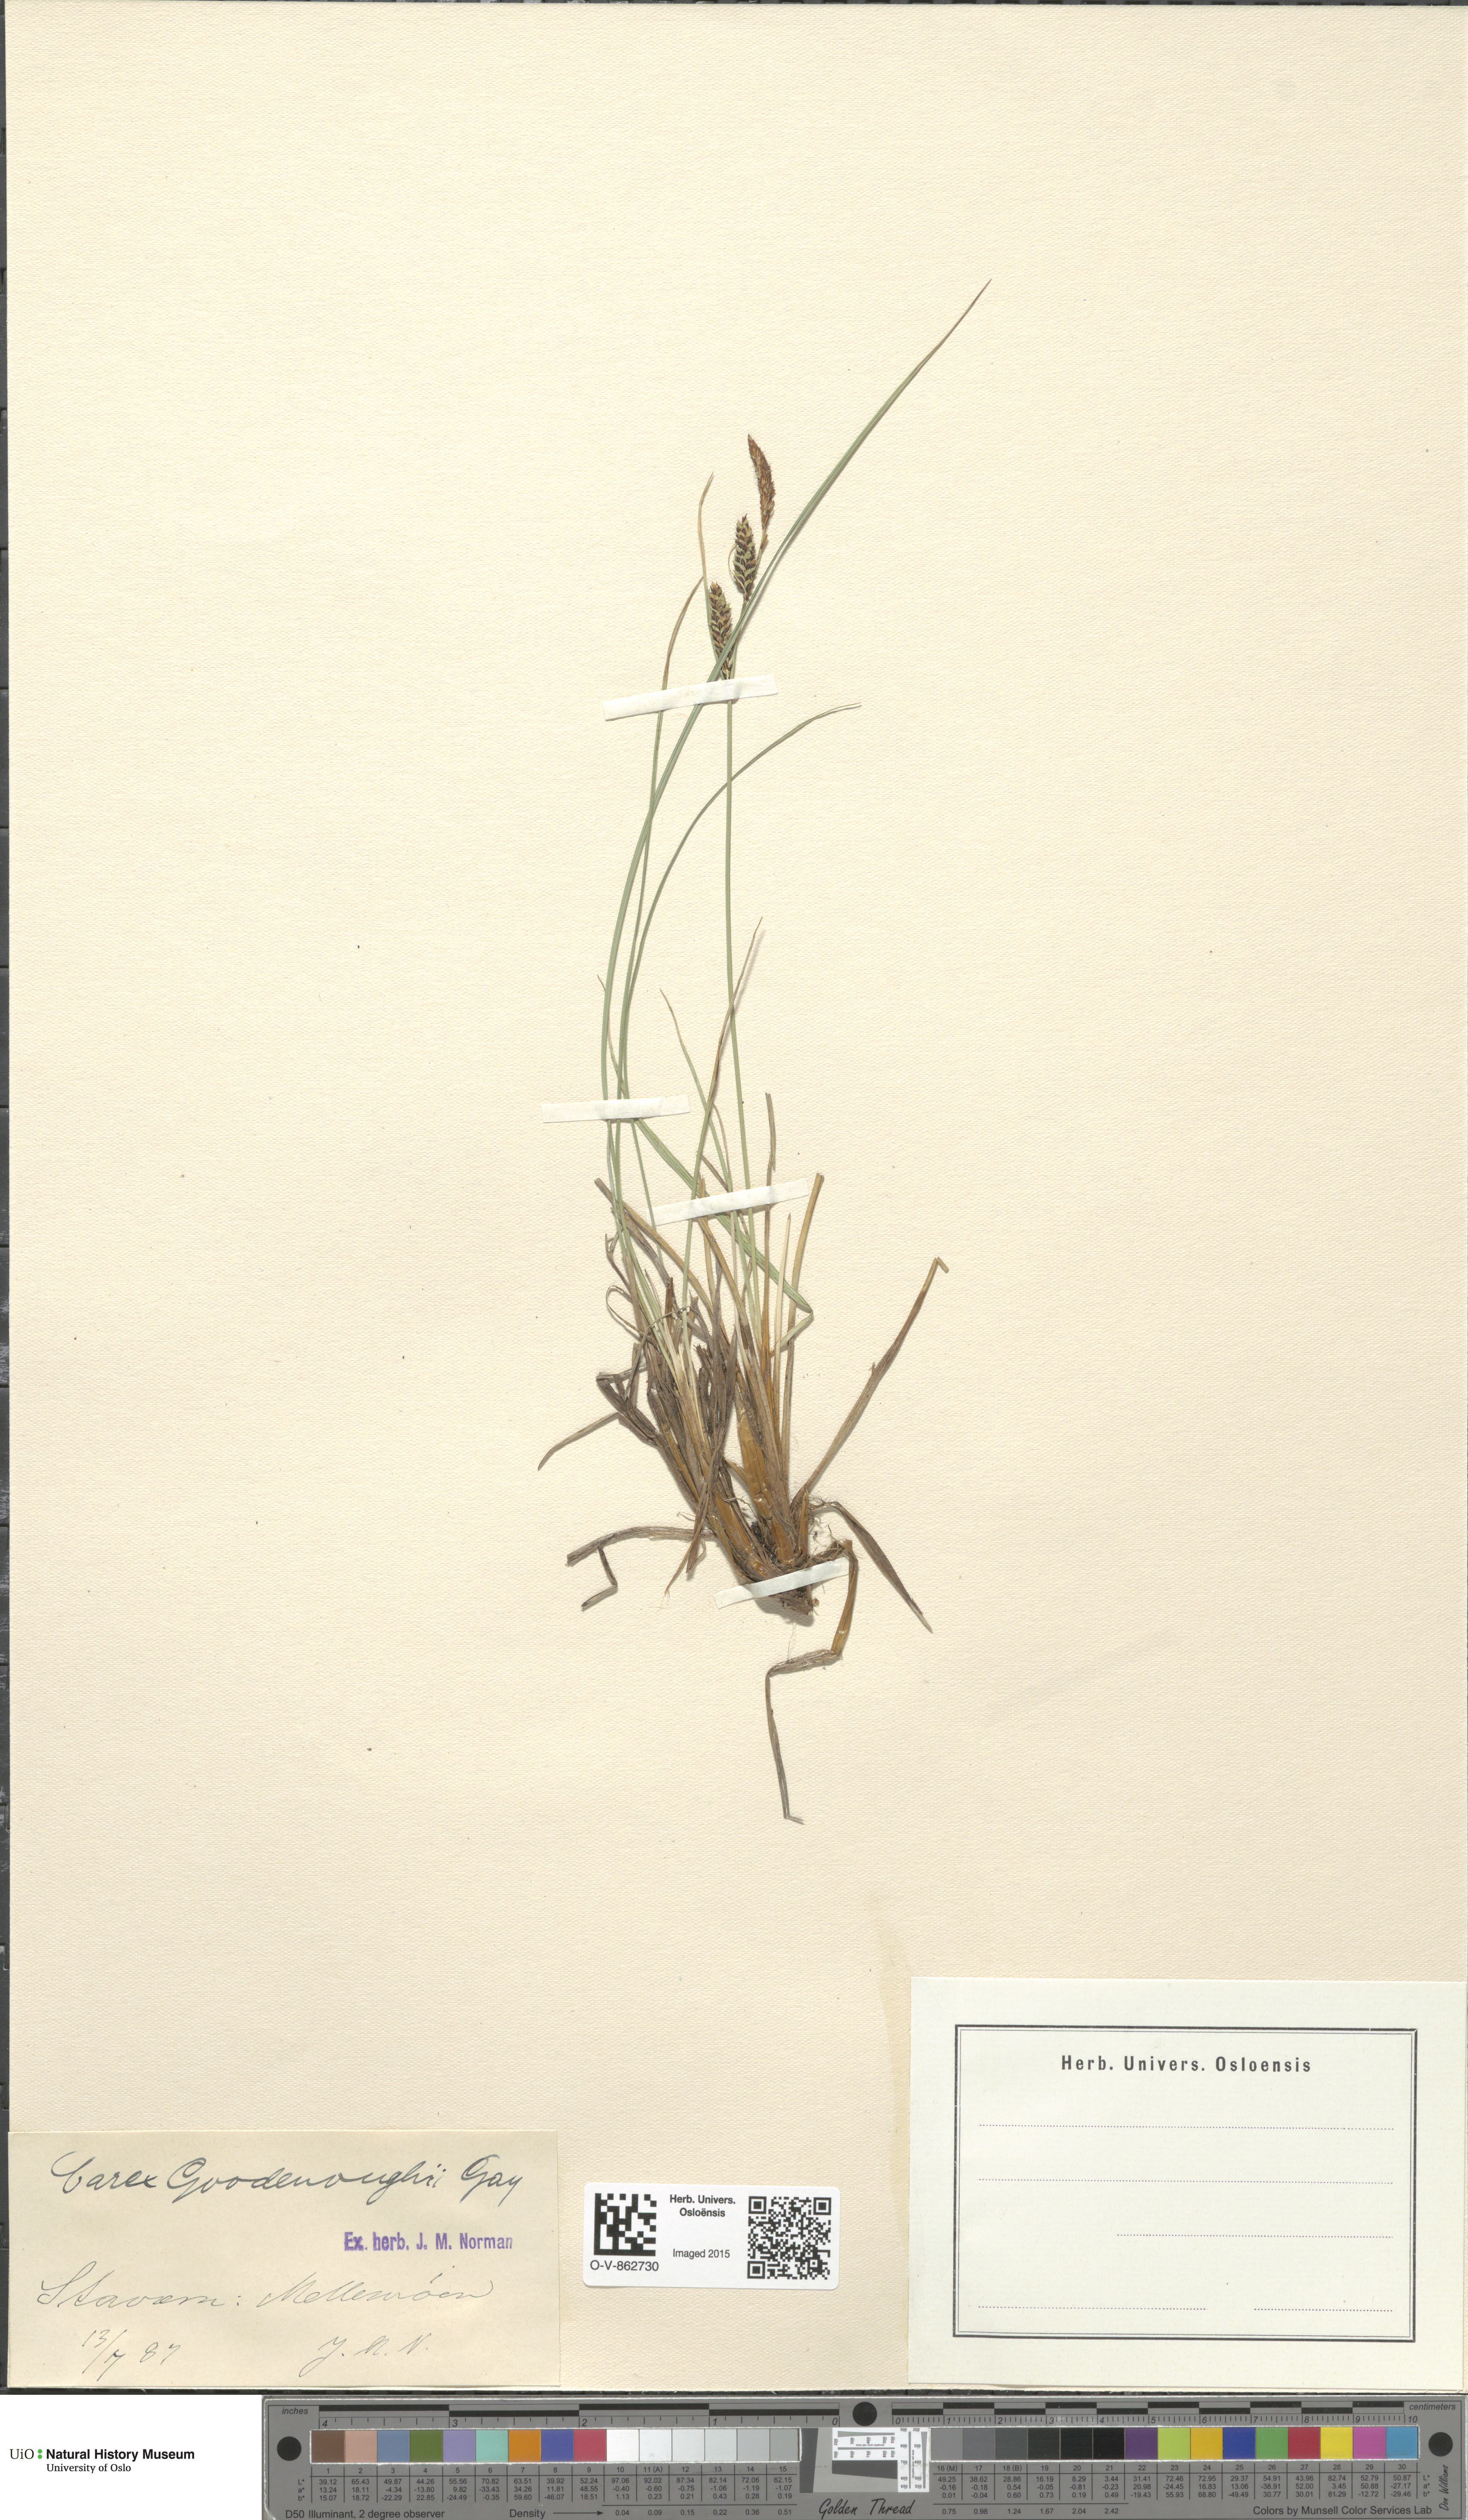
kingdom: Plantae
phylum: Tracheophyta
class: Liliopsida
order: Poales
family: Cyperaceae
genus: Carex
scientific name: Carex nigra
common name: Common sedge
